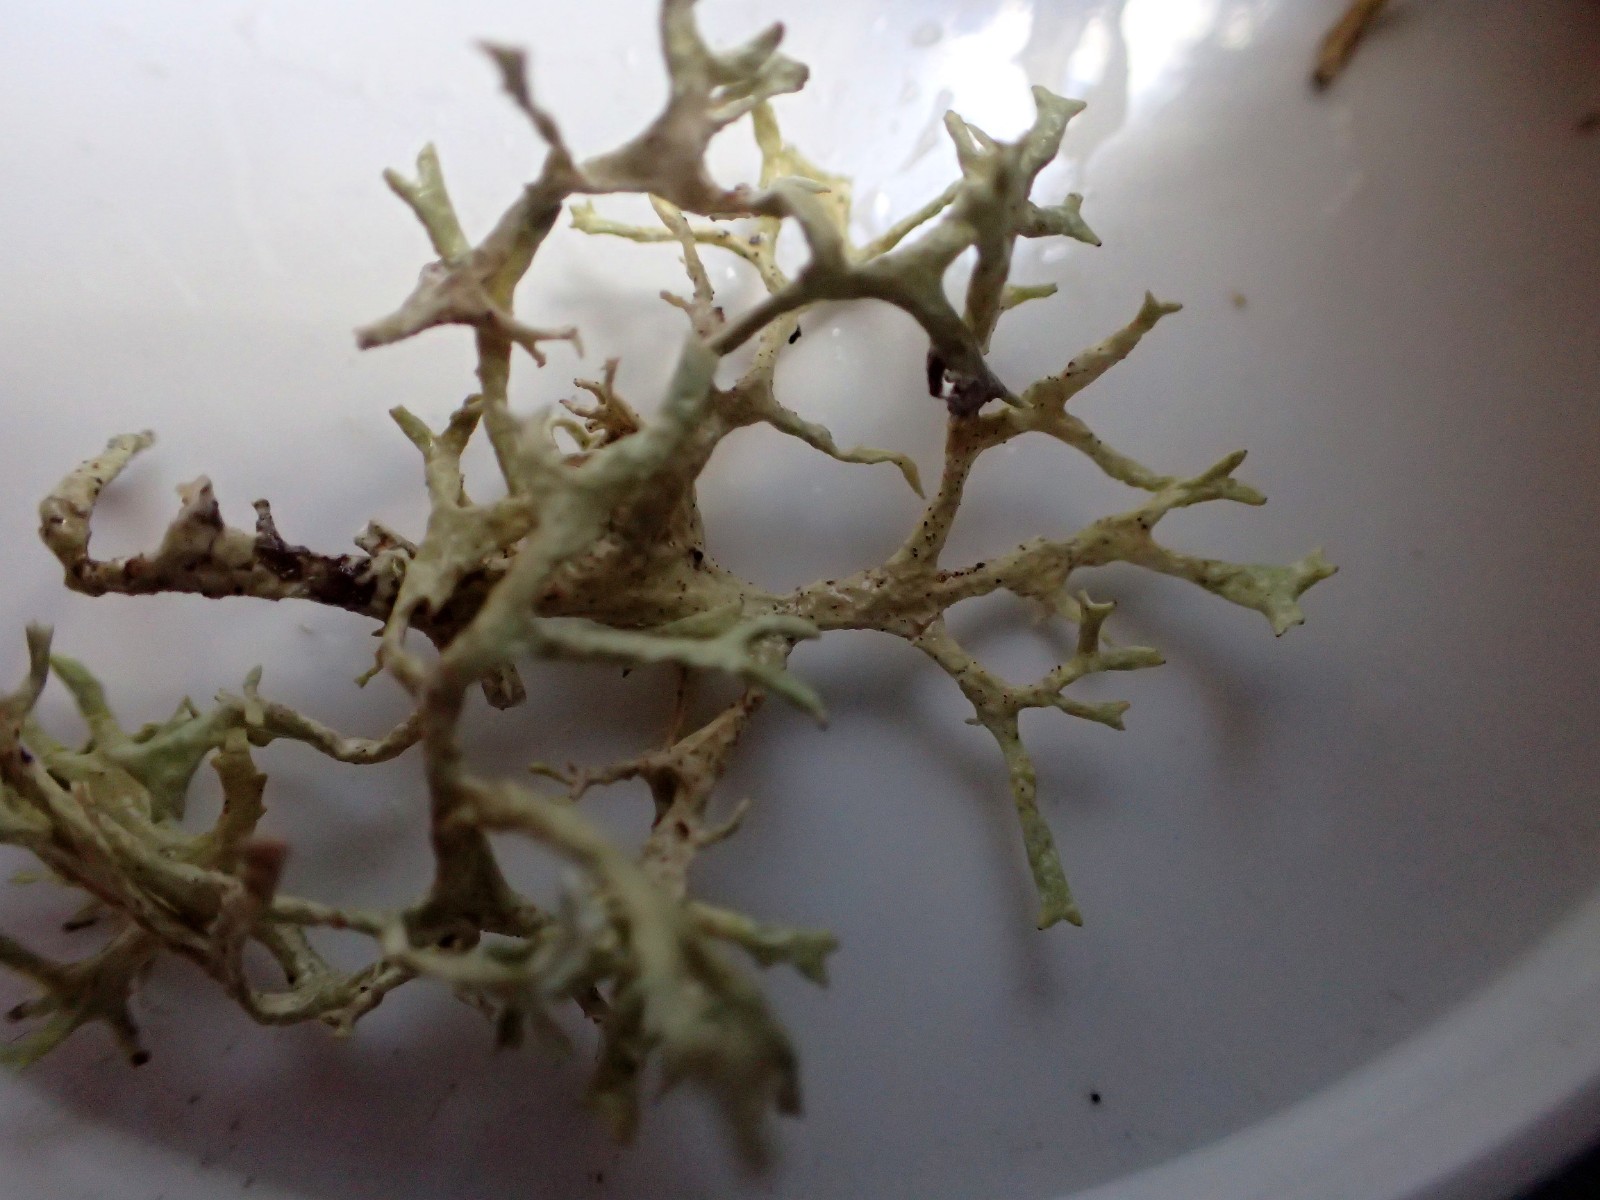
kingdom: Fungi
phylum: Ascomycota
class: Lecanoromycetes
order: Lecanorales
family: Parmeliaceae
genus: Evernia
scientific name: Evernia prunastri
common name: almindelig slåenlav
